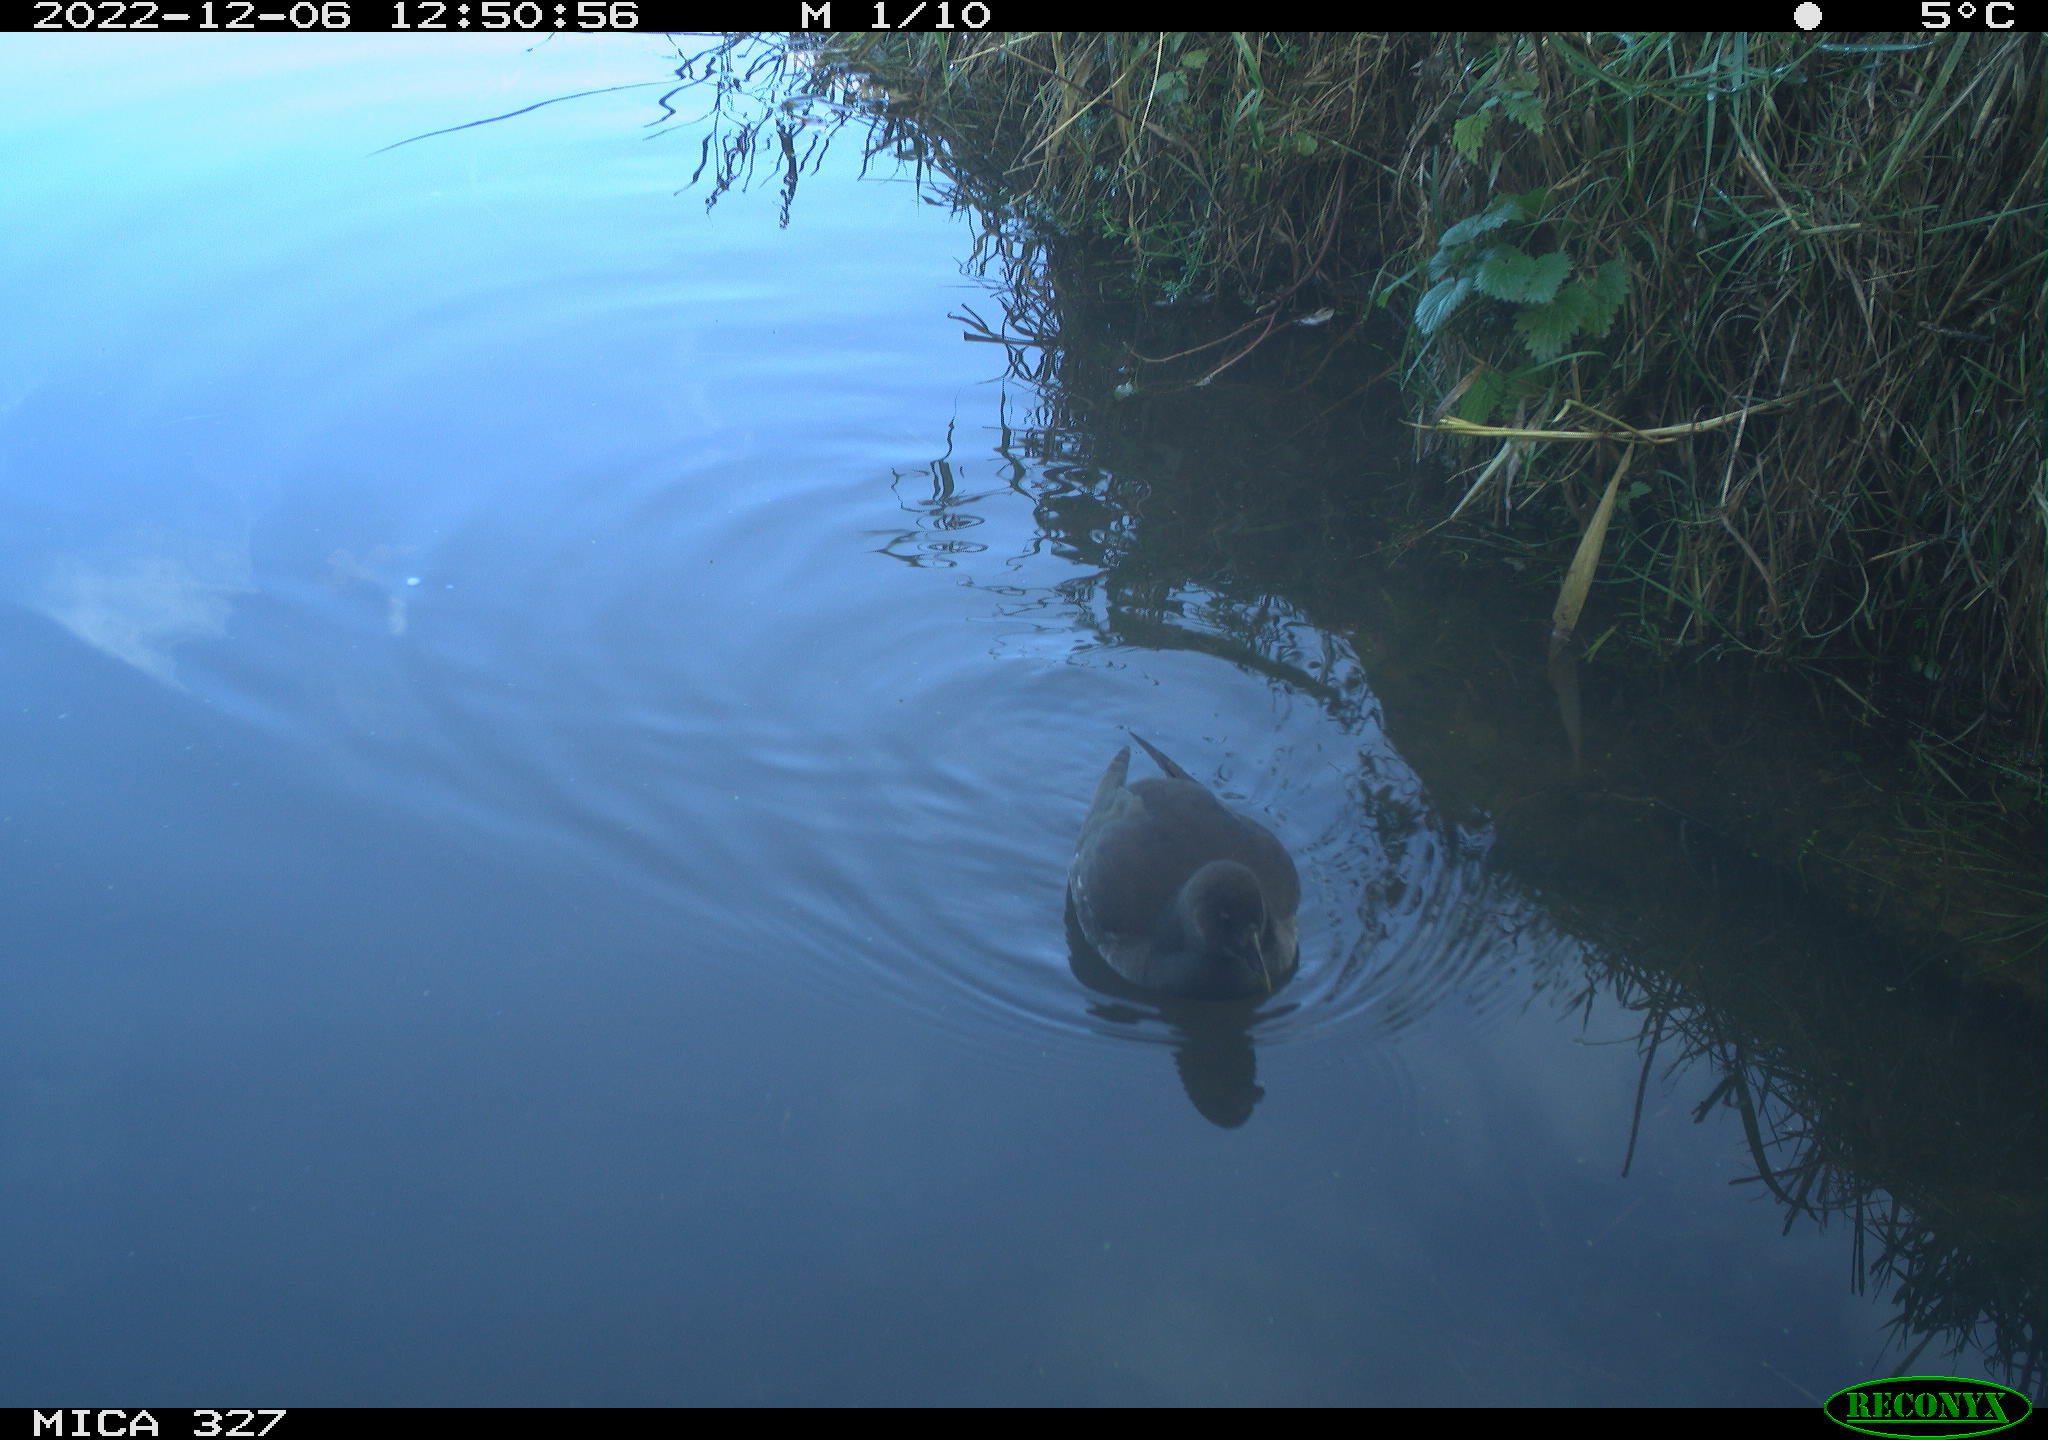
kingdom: Animalia
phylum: Chordata
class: Aves
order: Gruiformes
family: Rallidae
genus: Gallinula
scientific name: Gallinula chloropus
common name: Common moorhen
